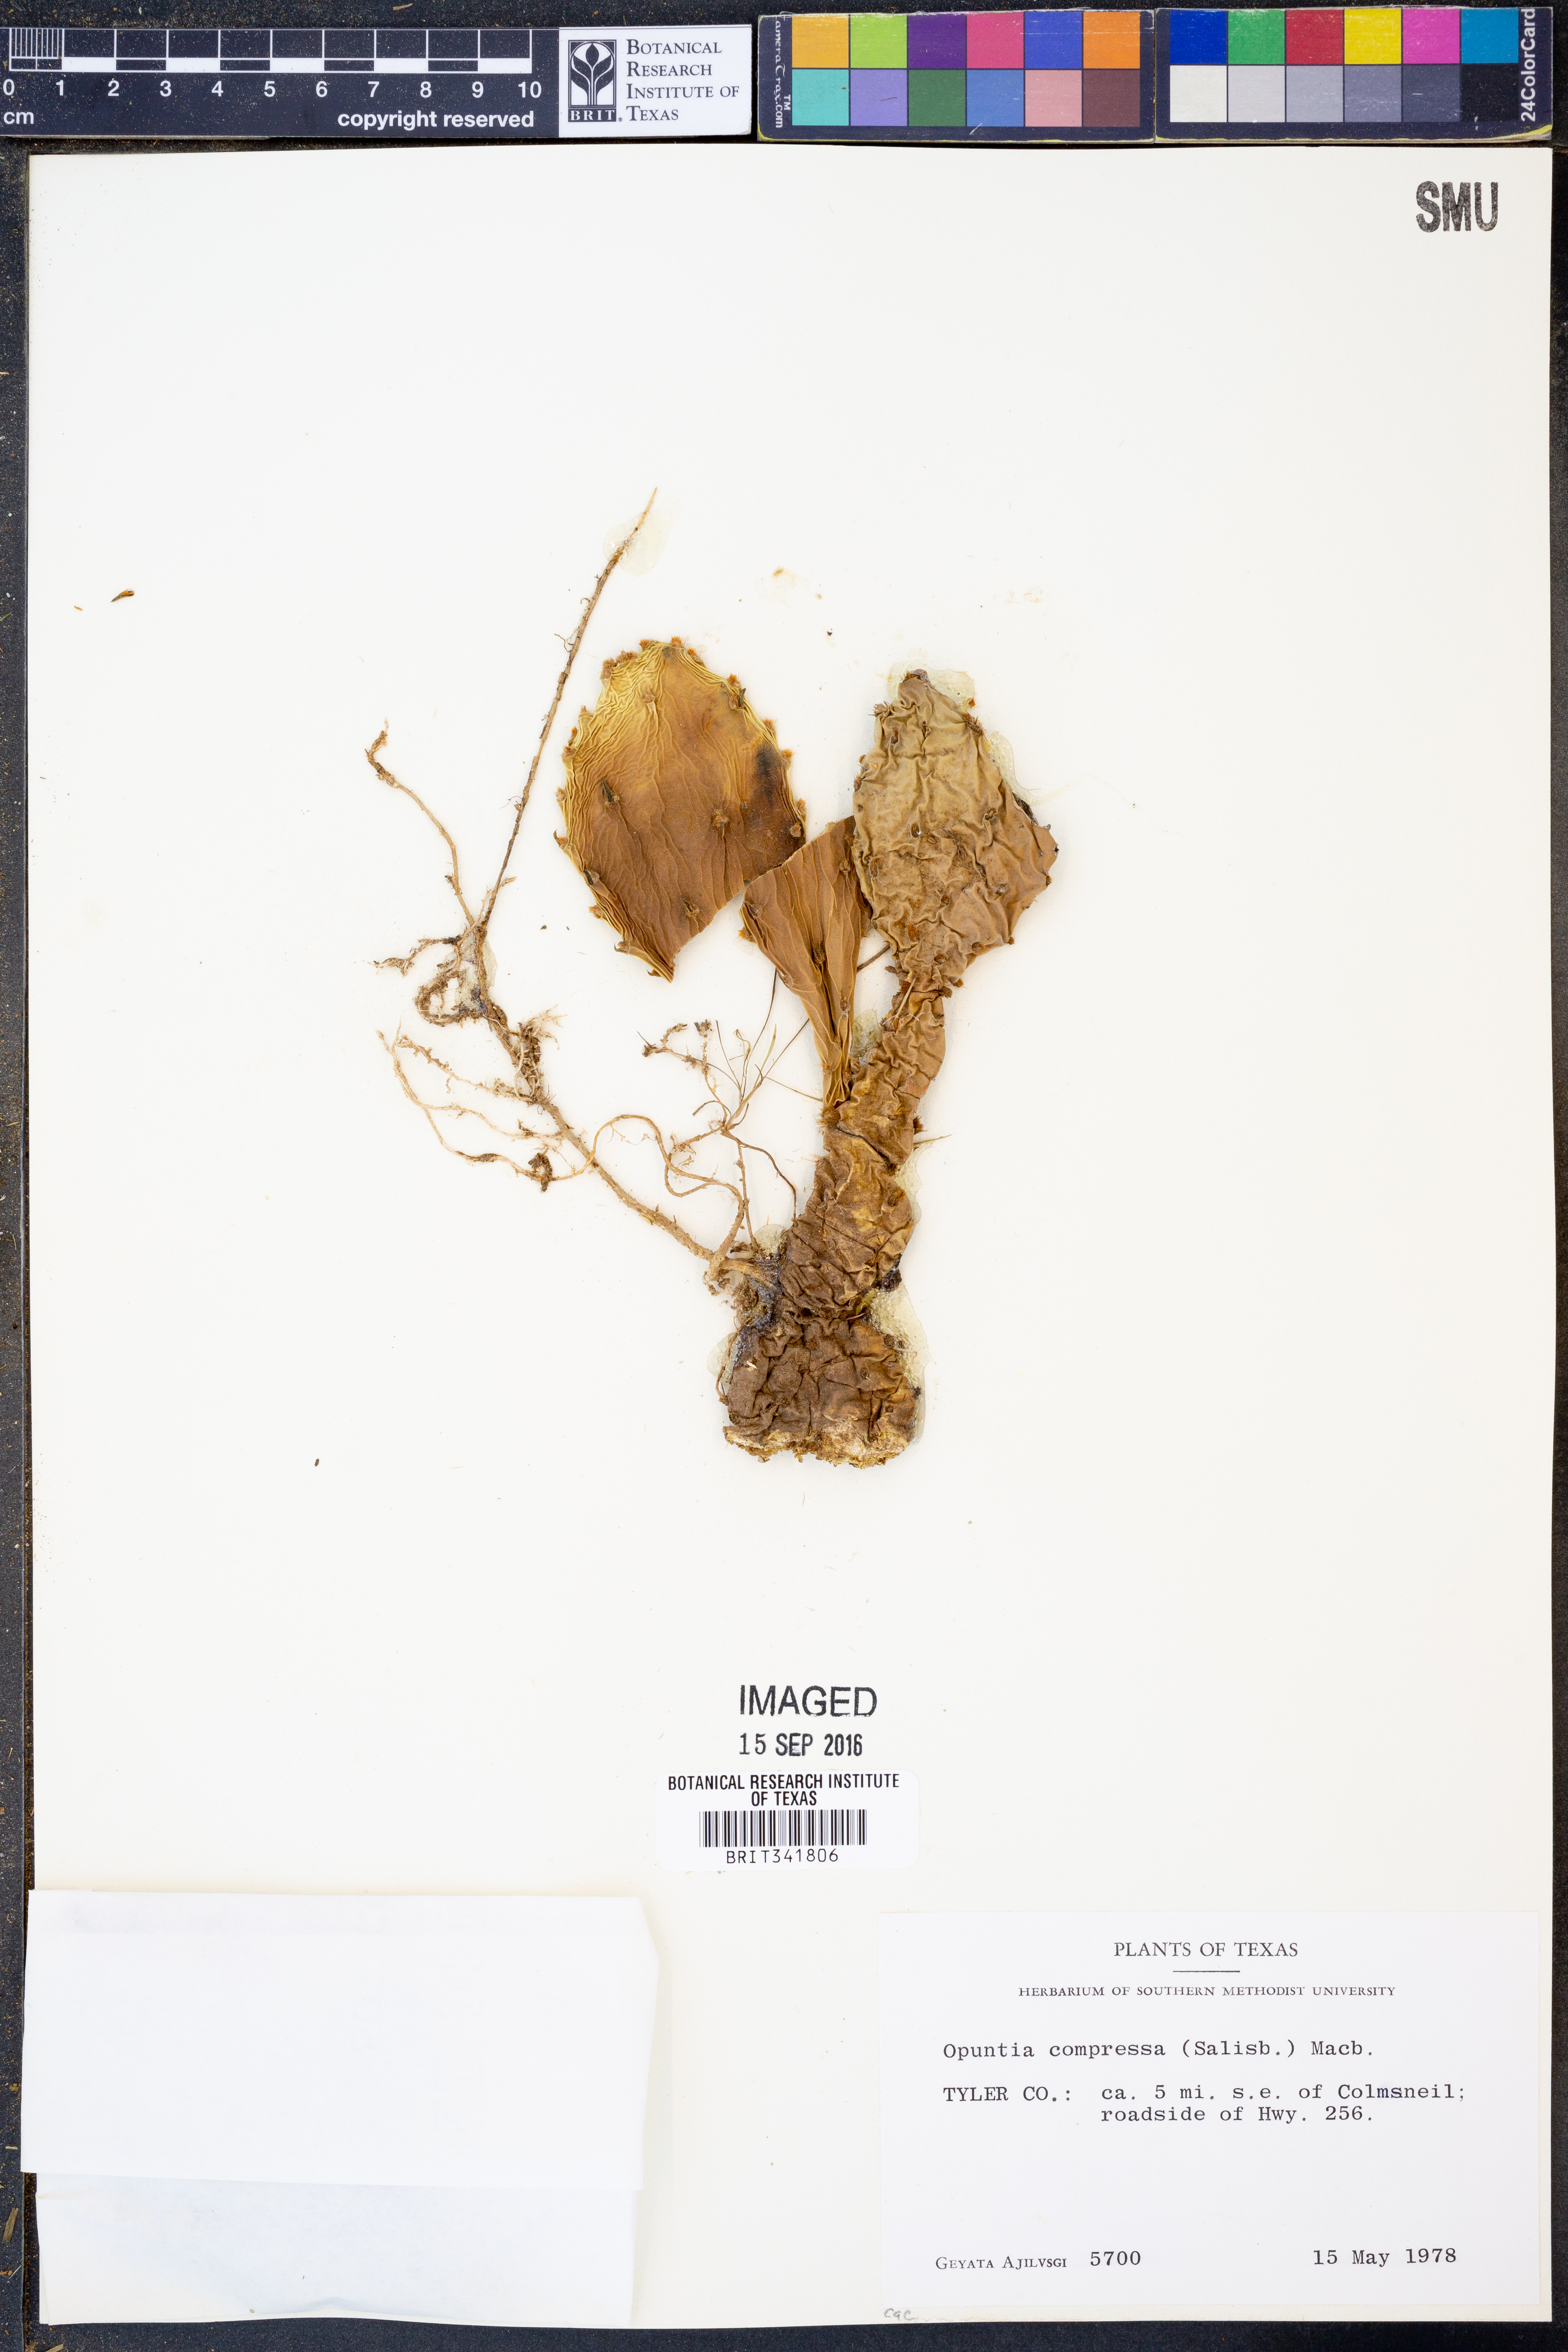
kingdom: Plantae
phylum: Tracheophyta
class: Magnoliopsida
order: Caryophyllales
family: Cactaceae
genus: Opuntia
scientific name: Opuntia humifusa
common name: Eastern prickly-pear
